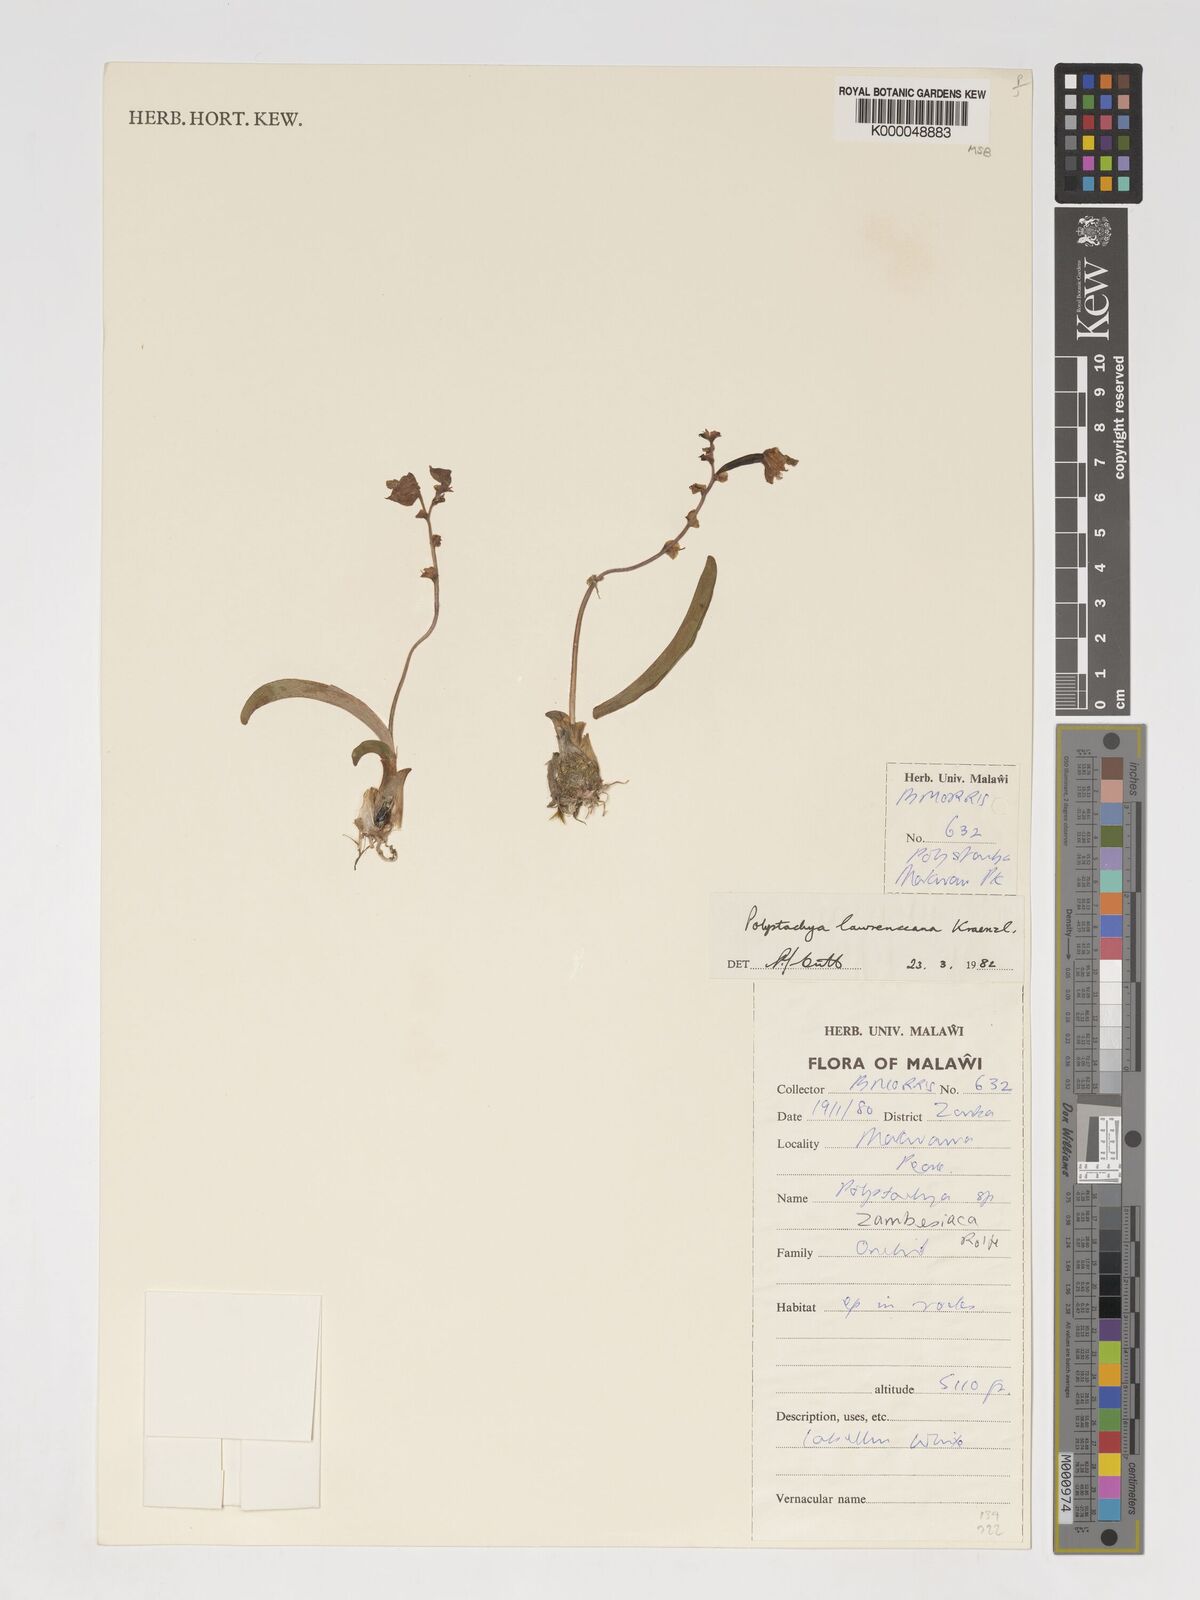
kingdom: Plantae
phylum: Tracheophyta
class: Liliopsida
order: Asparagales
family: Orchidaceae
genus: Polystachya
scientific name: Polystachya lawrenceana
